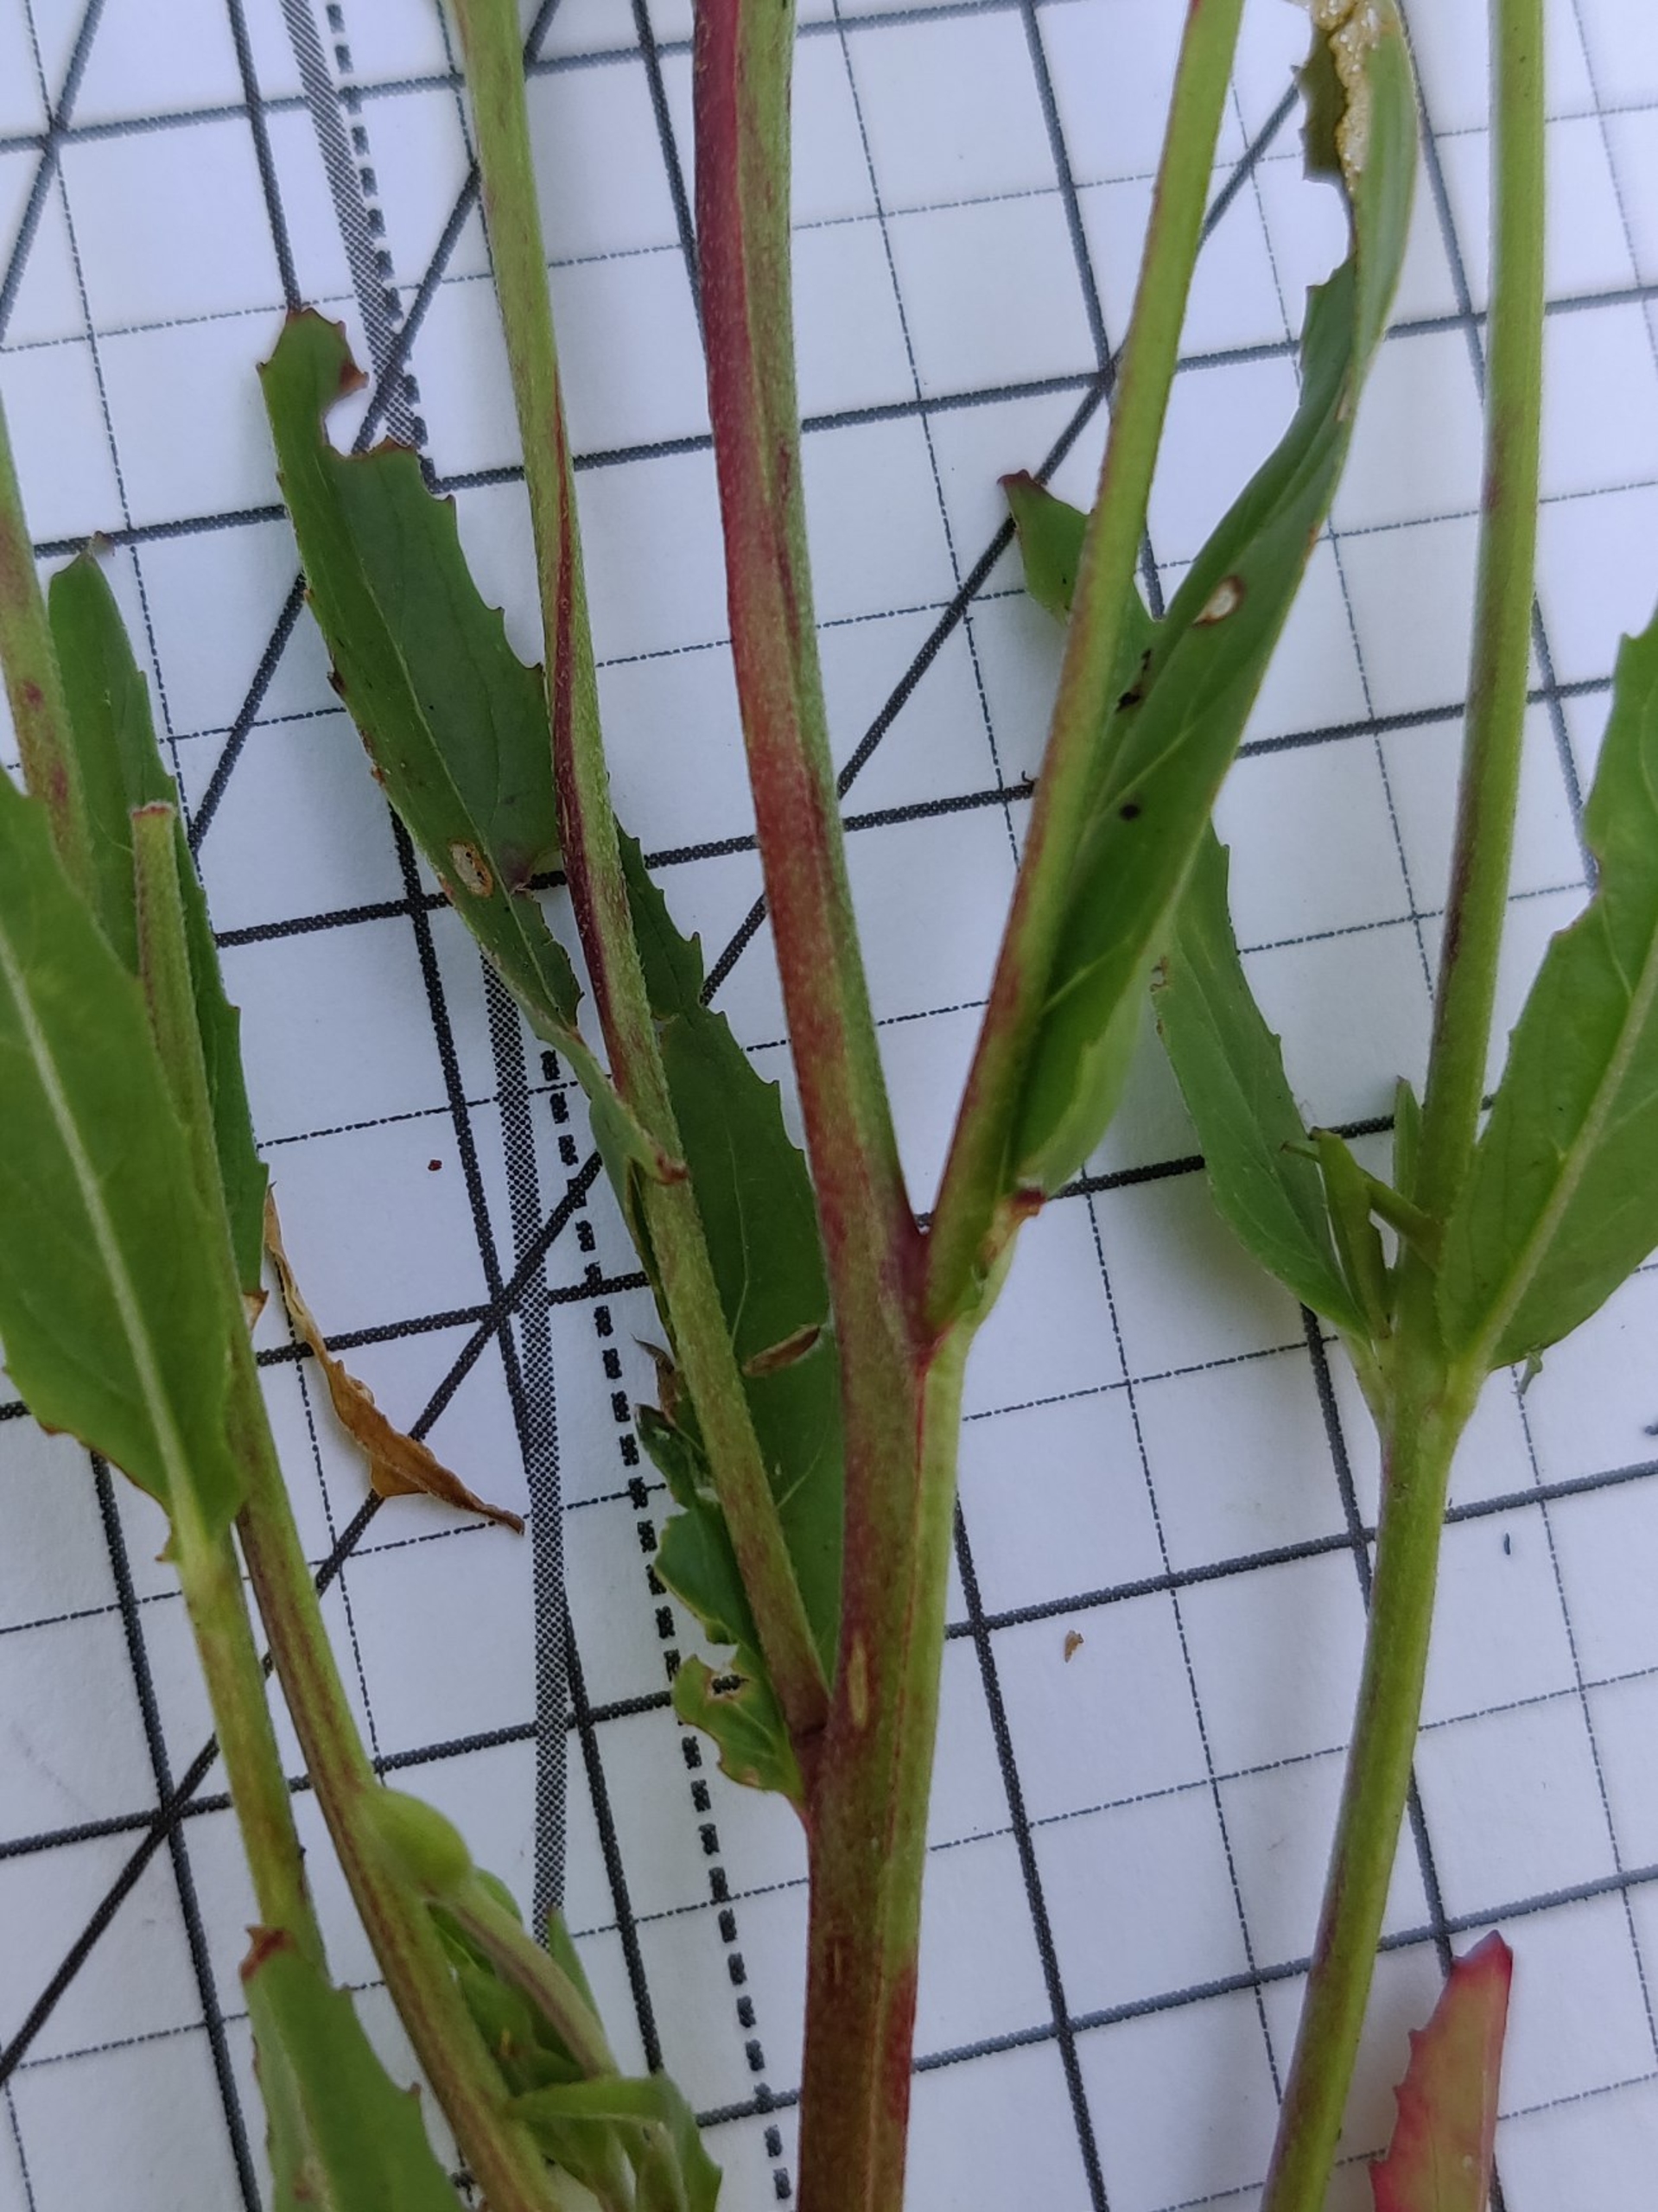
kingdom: Plantae
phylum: Tracheophyta
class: Magnoliopsida
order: Myrtales
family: Onagraceae
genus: Epilobium
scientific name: Epilobium
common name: Dueurtslægten
